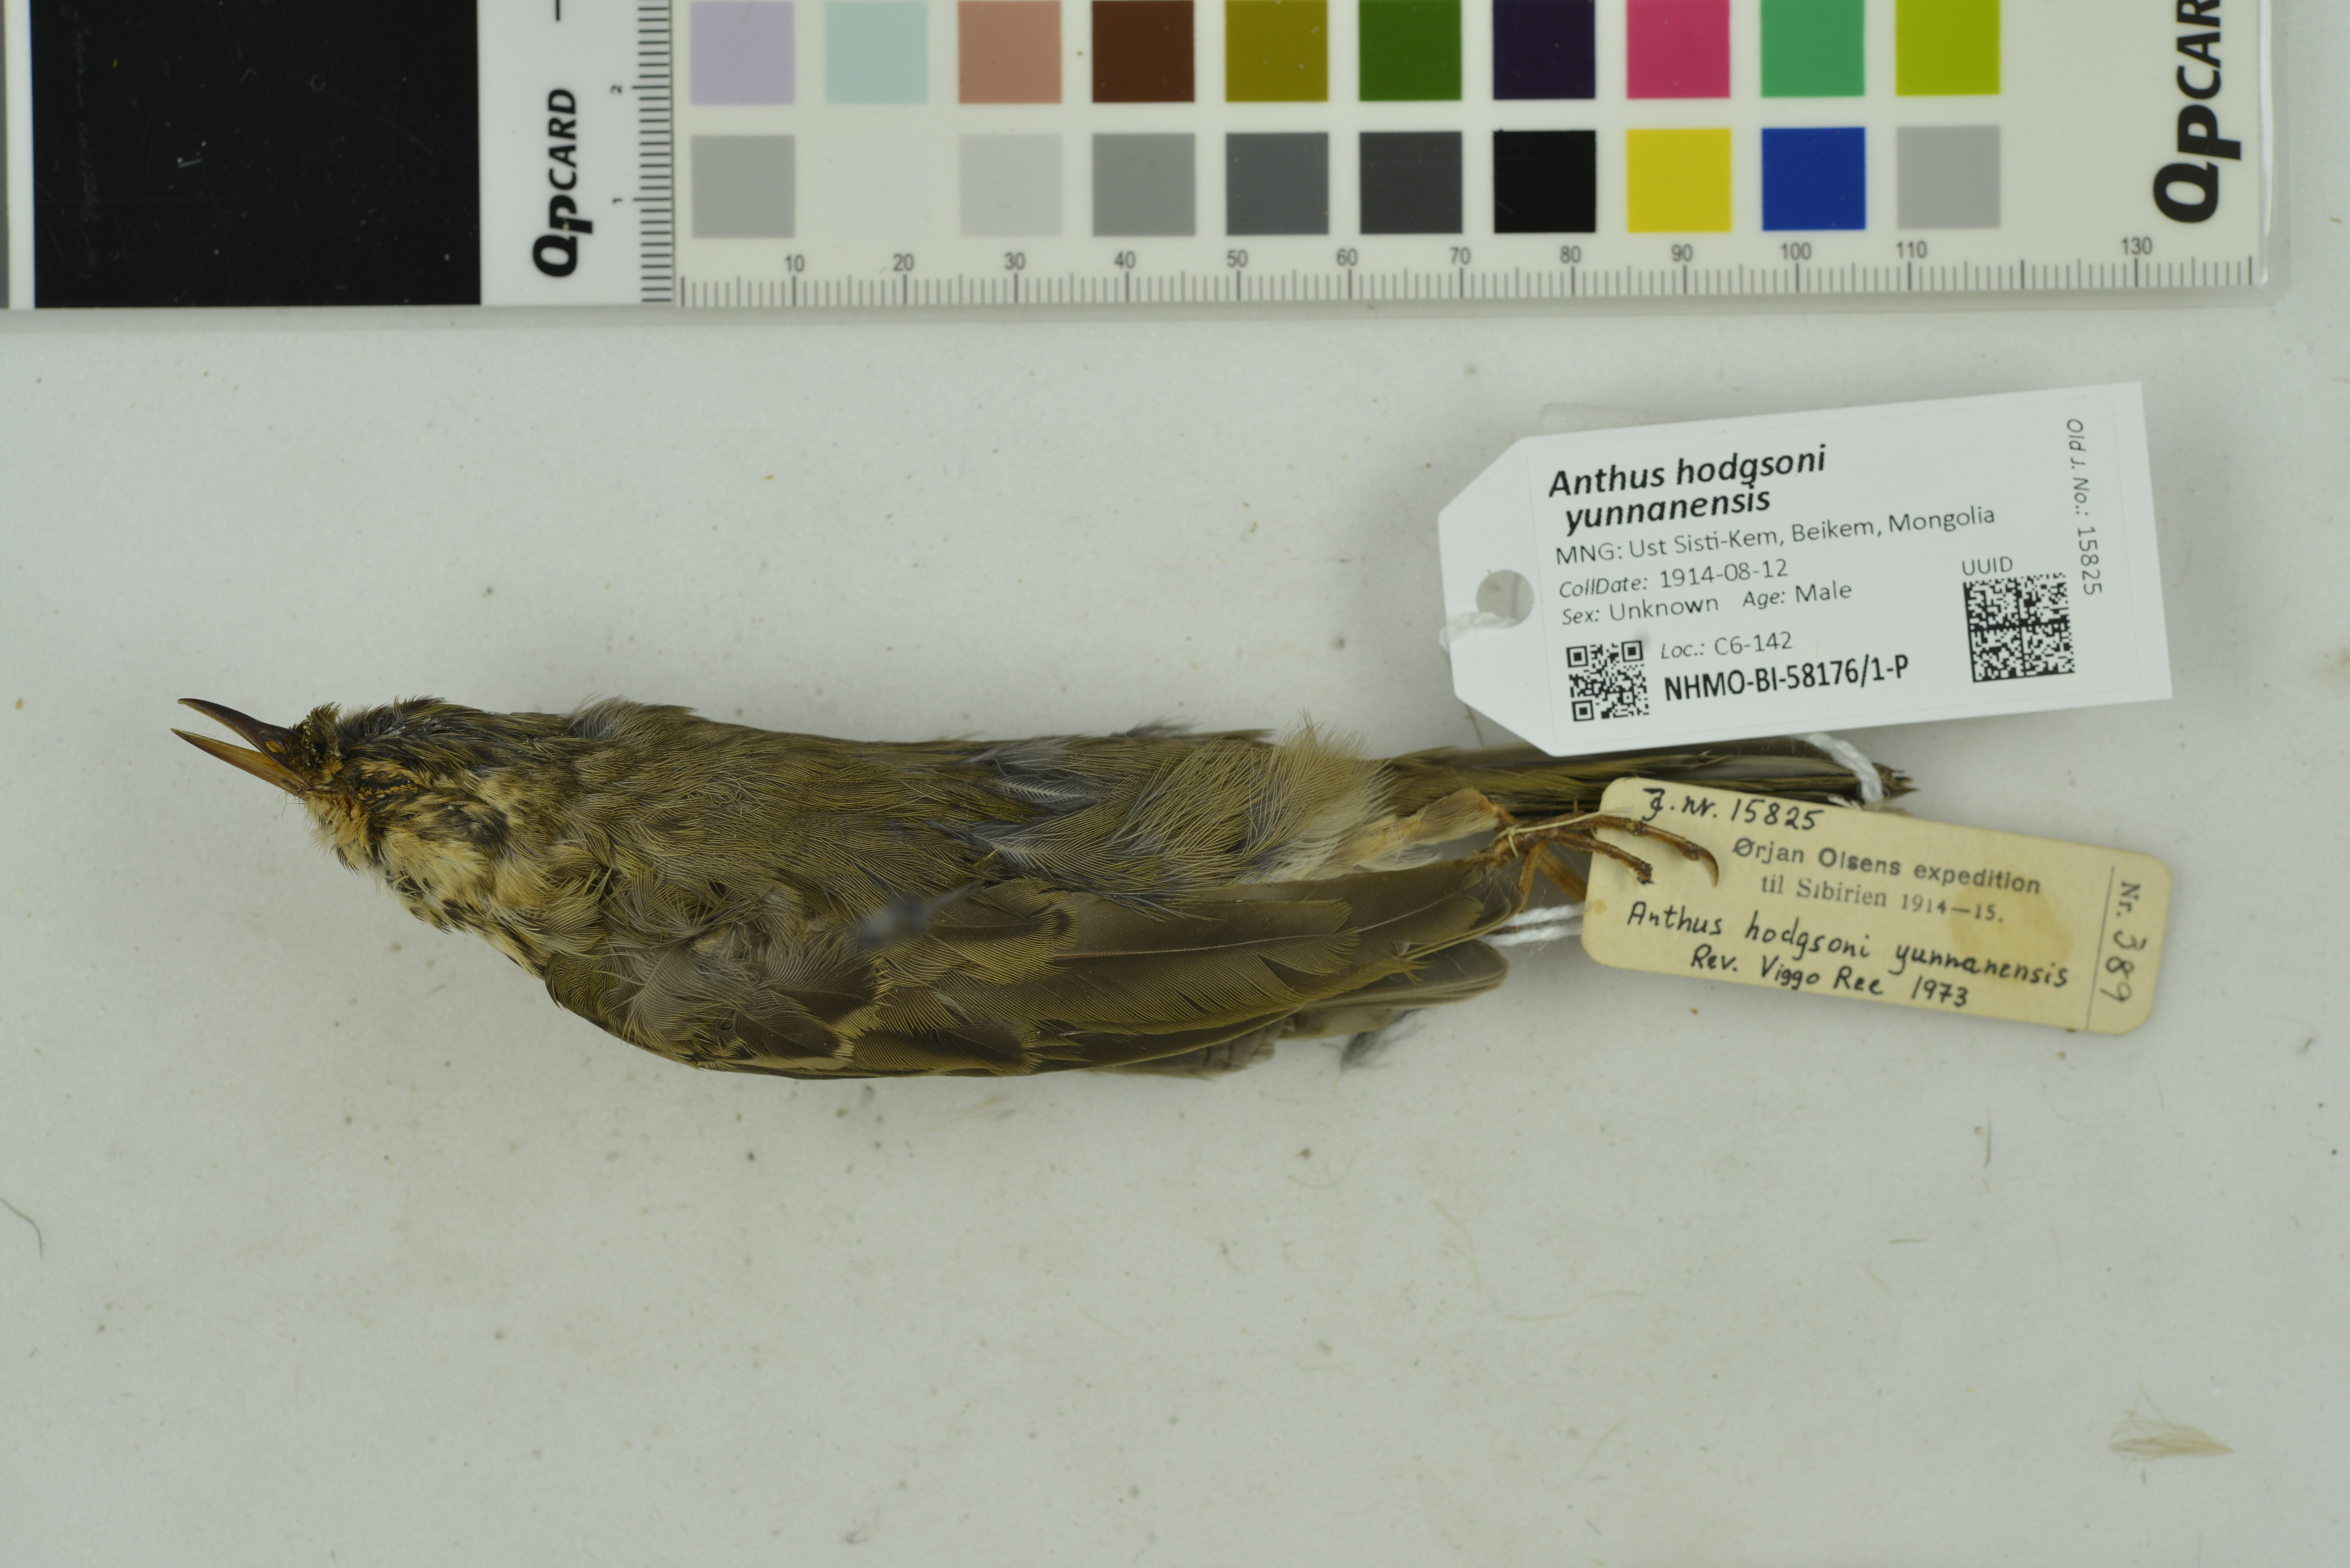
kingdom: Animalia
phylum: Chordata
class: Aves
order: Passeriformes
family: Motacillidae
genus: Anthus
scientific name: Anthus hodgsoni
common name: Olive-backed pipit
